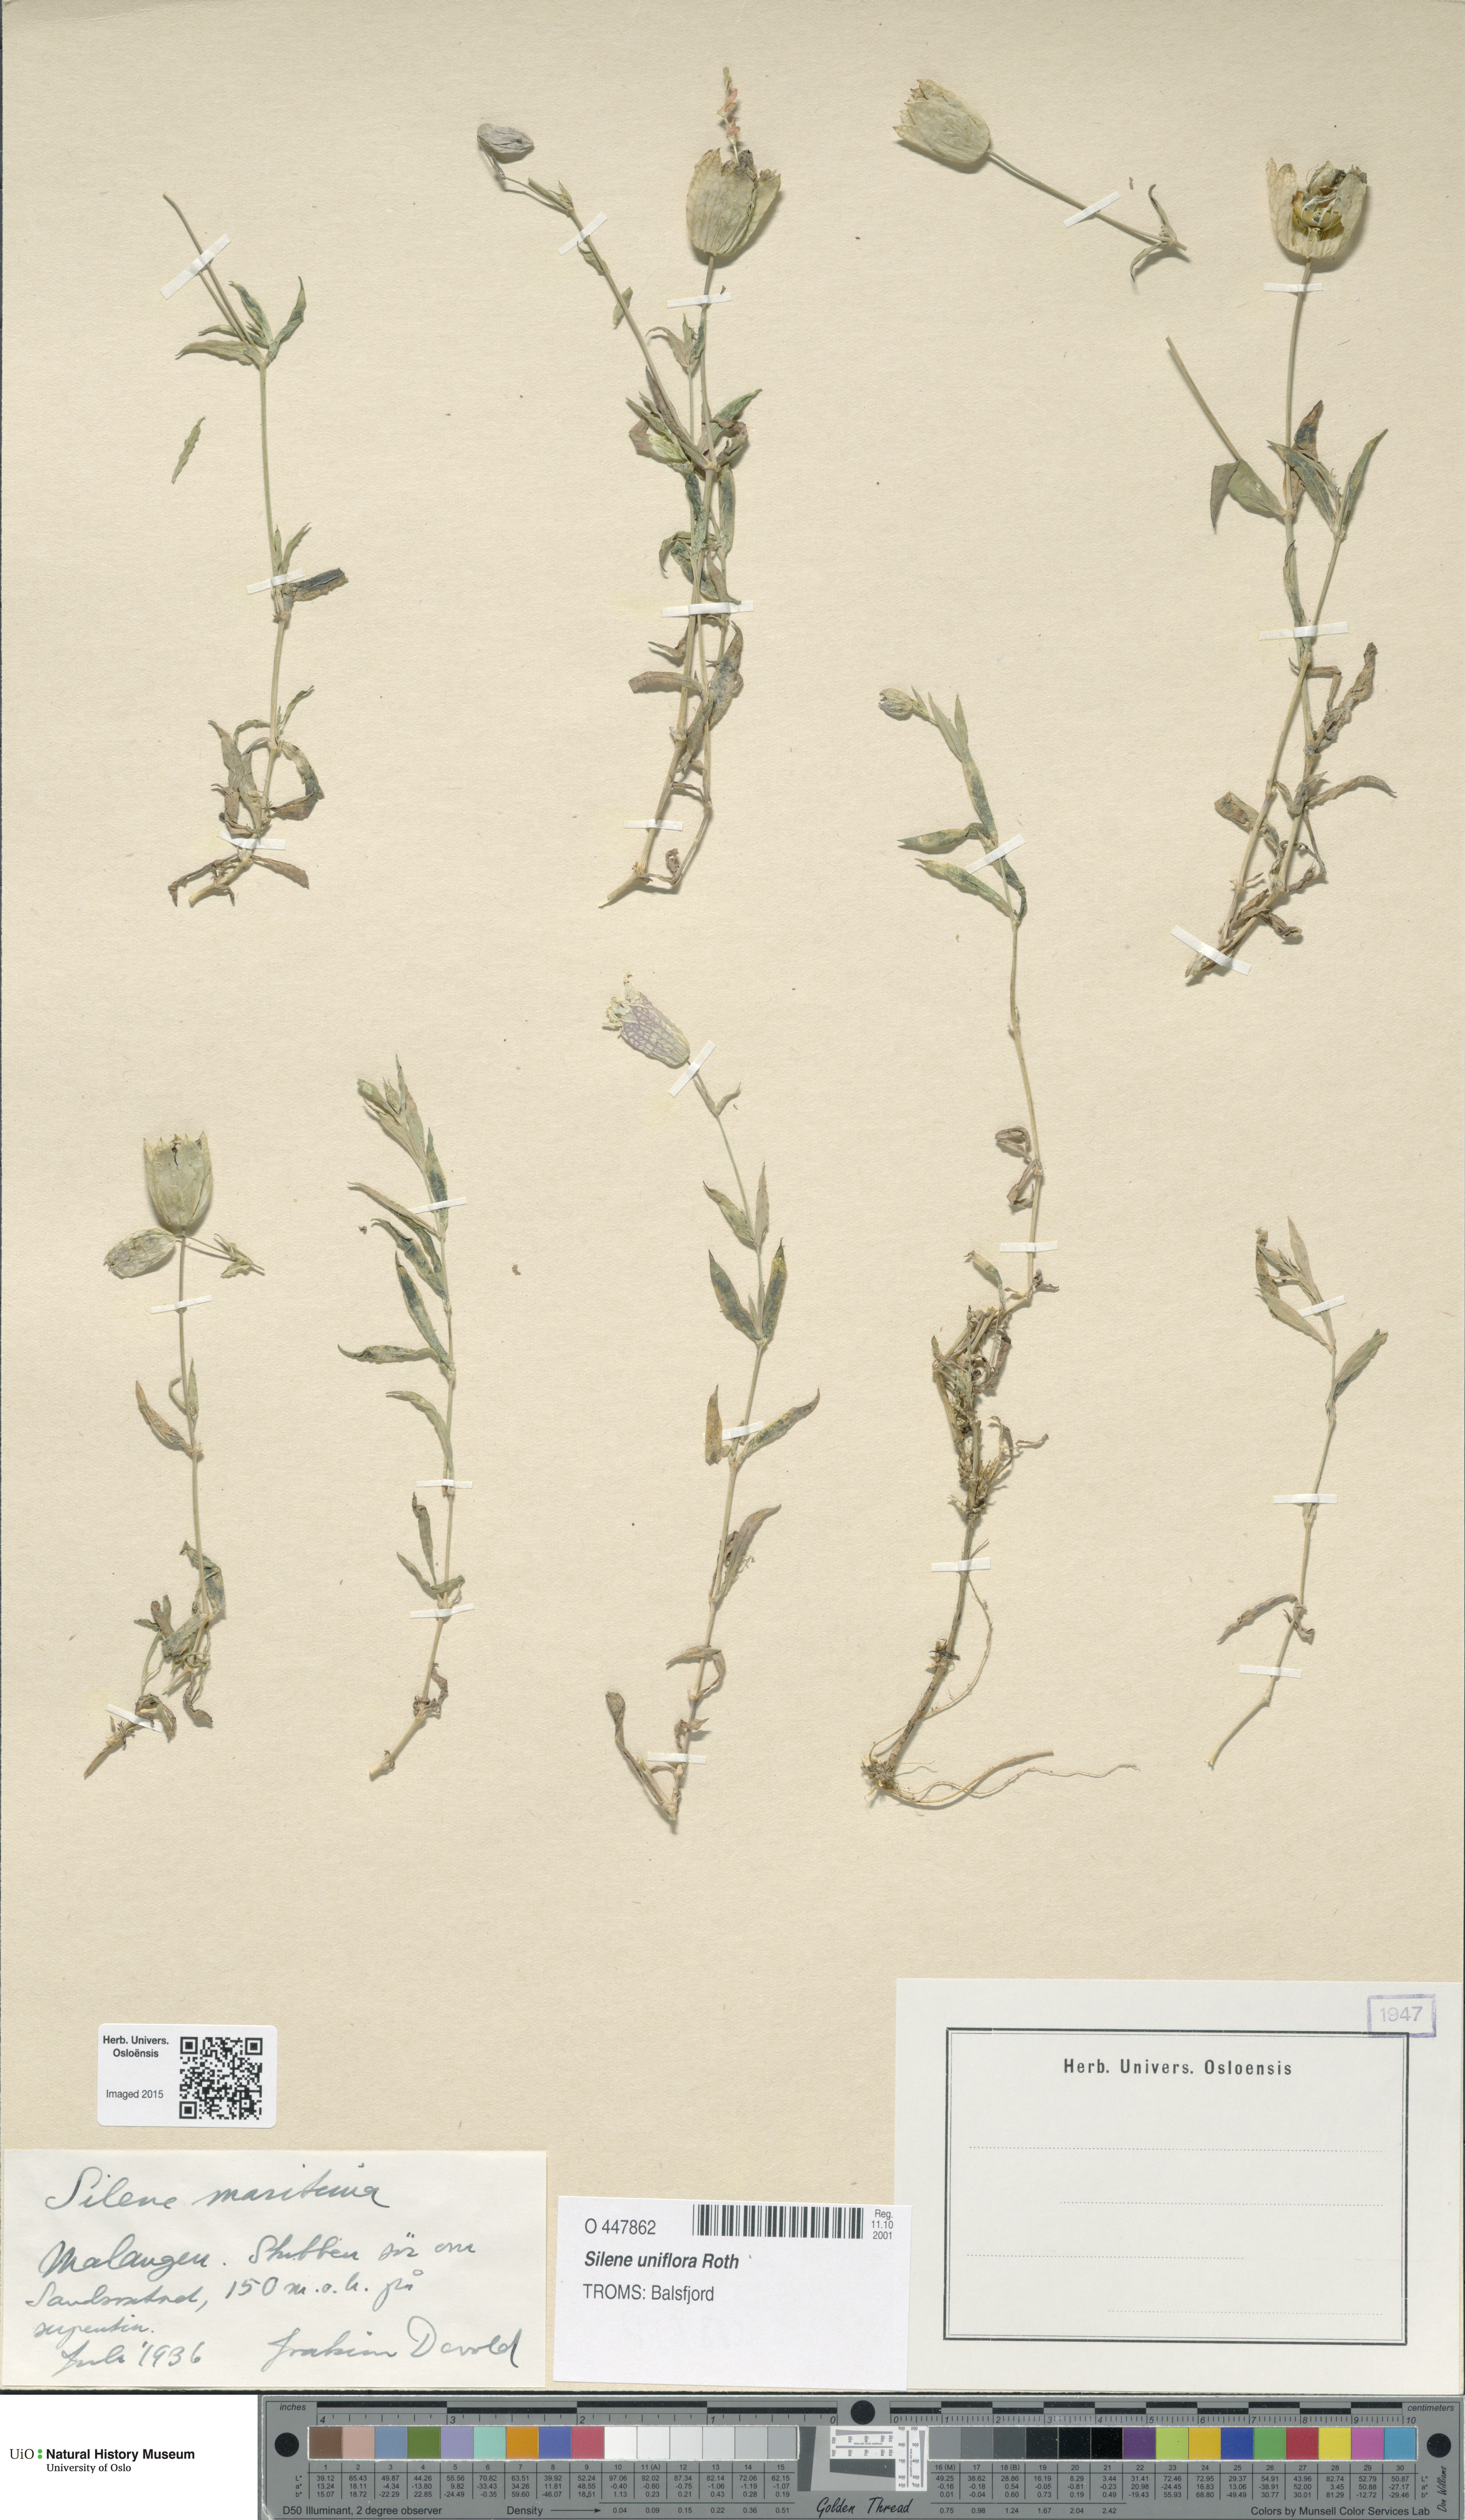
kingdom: Plantae
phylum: Tracheophyta
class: Magnoliopsida
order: Caryophyllales
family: Caryophyllaceae
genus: Silene
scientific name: Silene uniflora
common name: Sea campion
